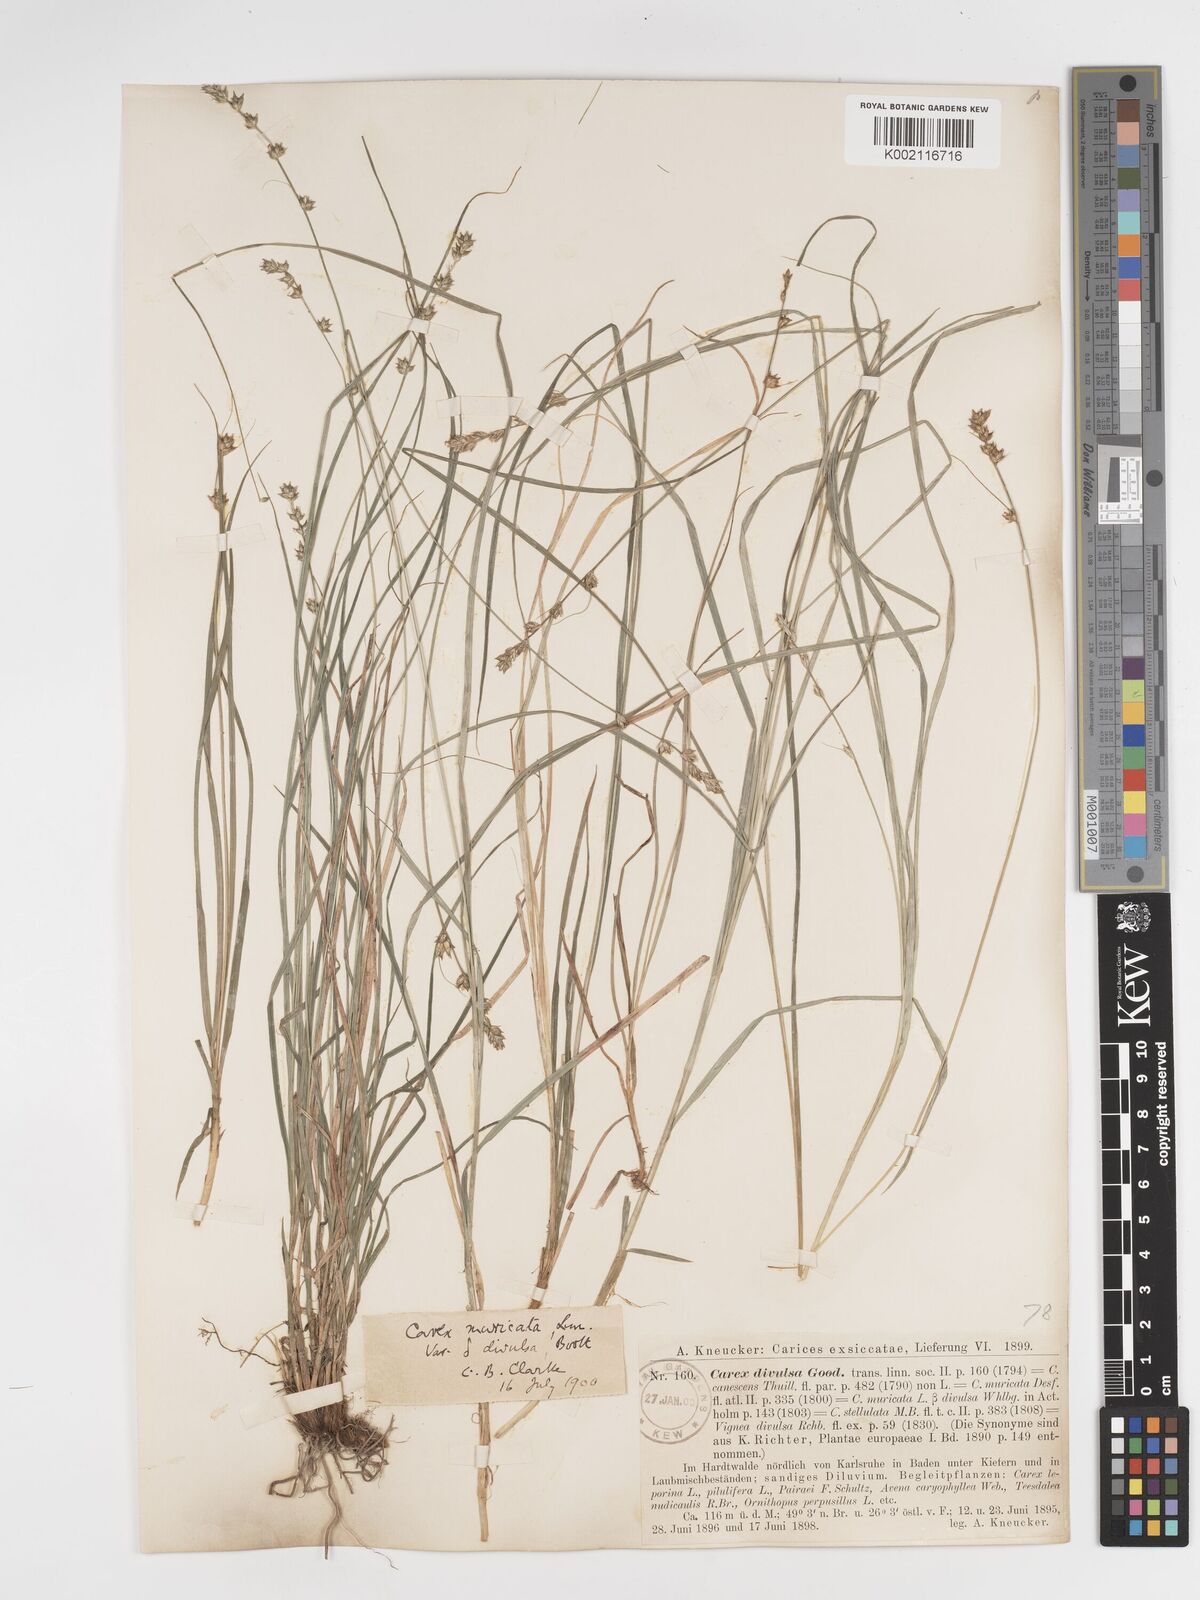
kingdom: Plantae
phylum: Tracheophyta
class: Liliopsida
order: Poales
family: Cyperaceae
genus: Carex
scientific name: Carex divulsa
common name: Grassland sedge
